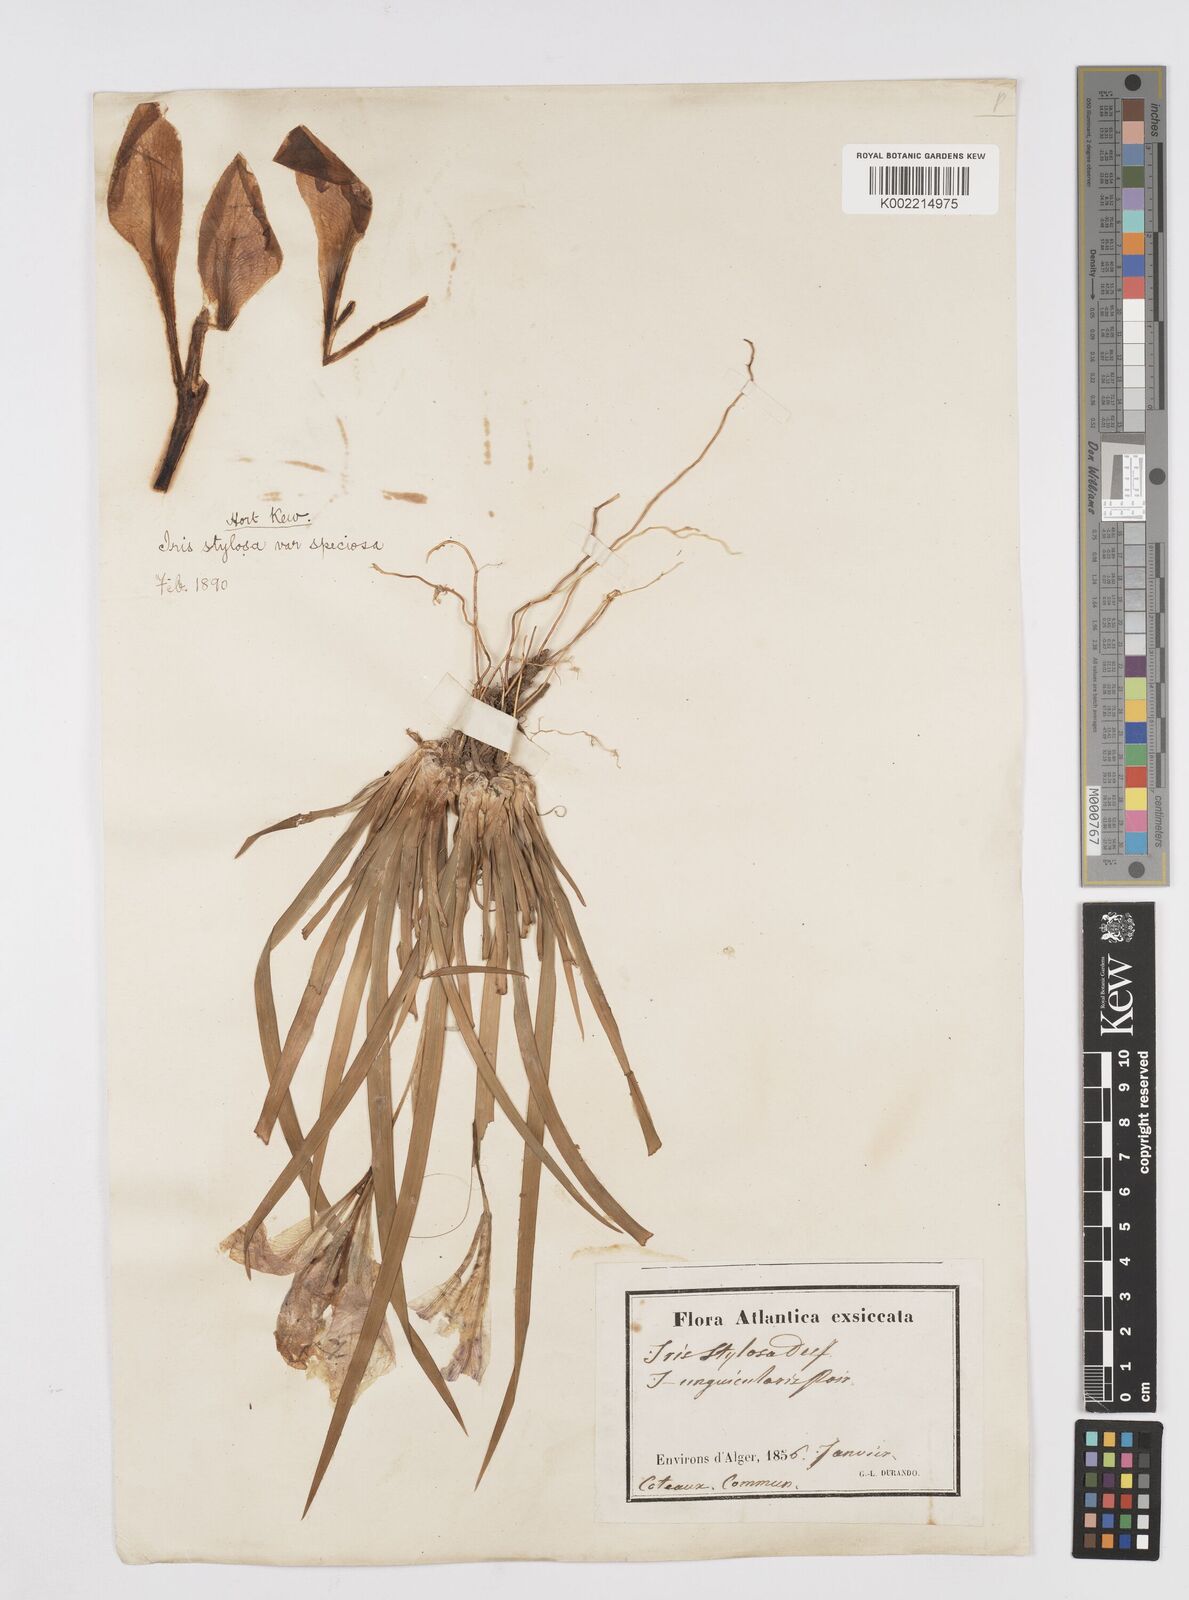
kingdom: Plantae
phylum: Tracheophyta
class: Liliopsida
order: Asparagales
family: Iridaceae
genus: Iris
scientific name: Iris unguicularis
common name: Algerian iris
